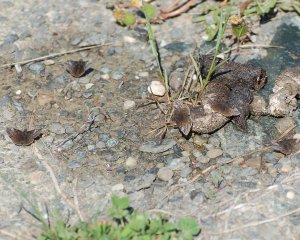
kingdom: Animalia
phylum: Arthropoda
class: Insecta
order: Lepidoptera
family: Hesperiidae
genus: Erynnis
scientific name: Erynnis icelus
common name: Dreamy Duskywing
